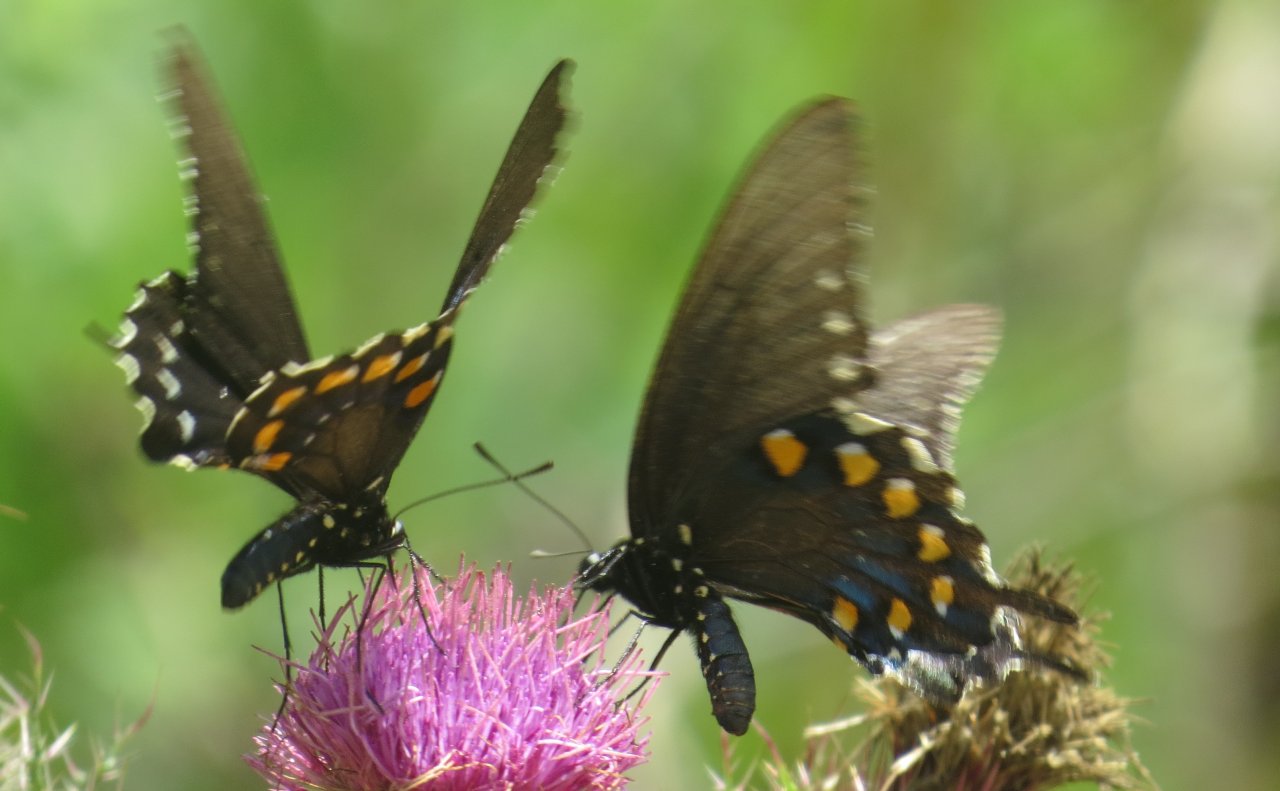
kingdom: Animalia
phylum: Arthropoda
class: Insecta
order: Lepidoptera
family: Papilionidae
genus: Battus
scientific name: Battus philenor
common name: Pipevine Swallowtail
